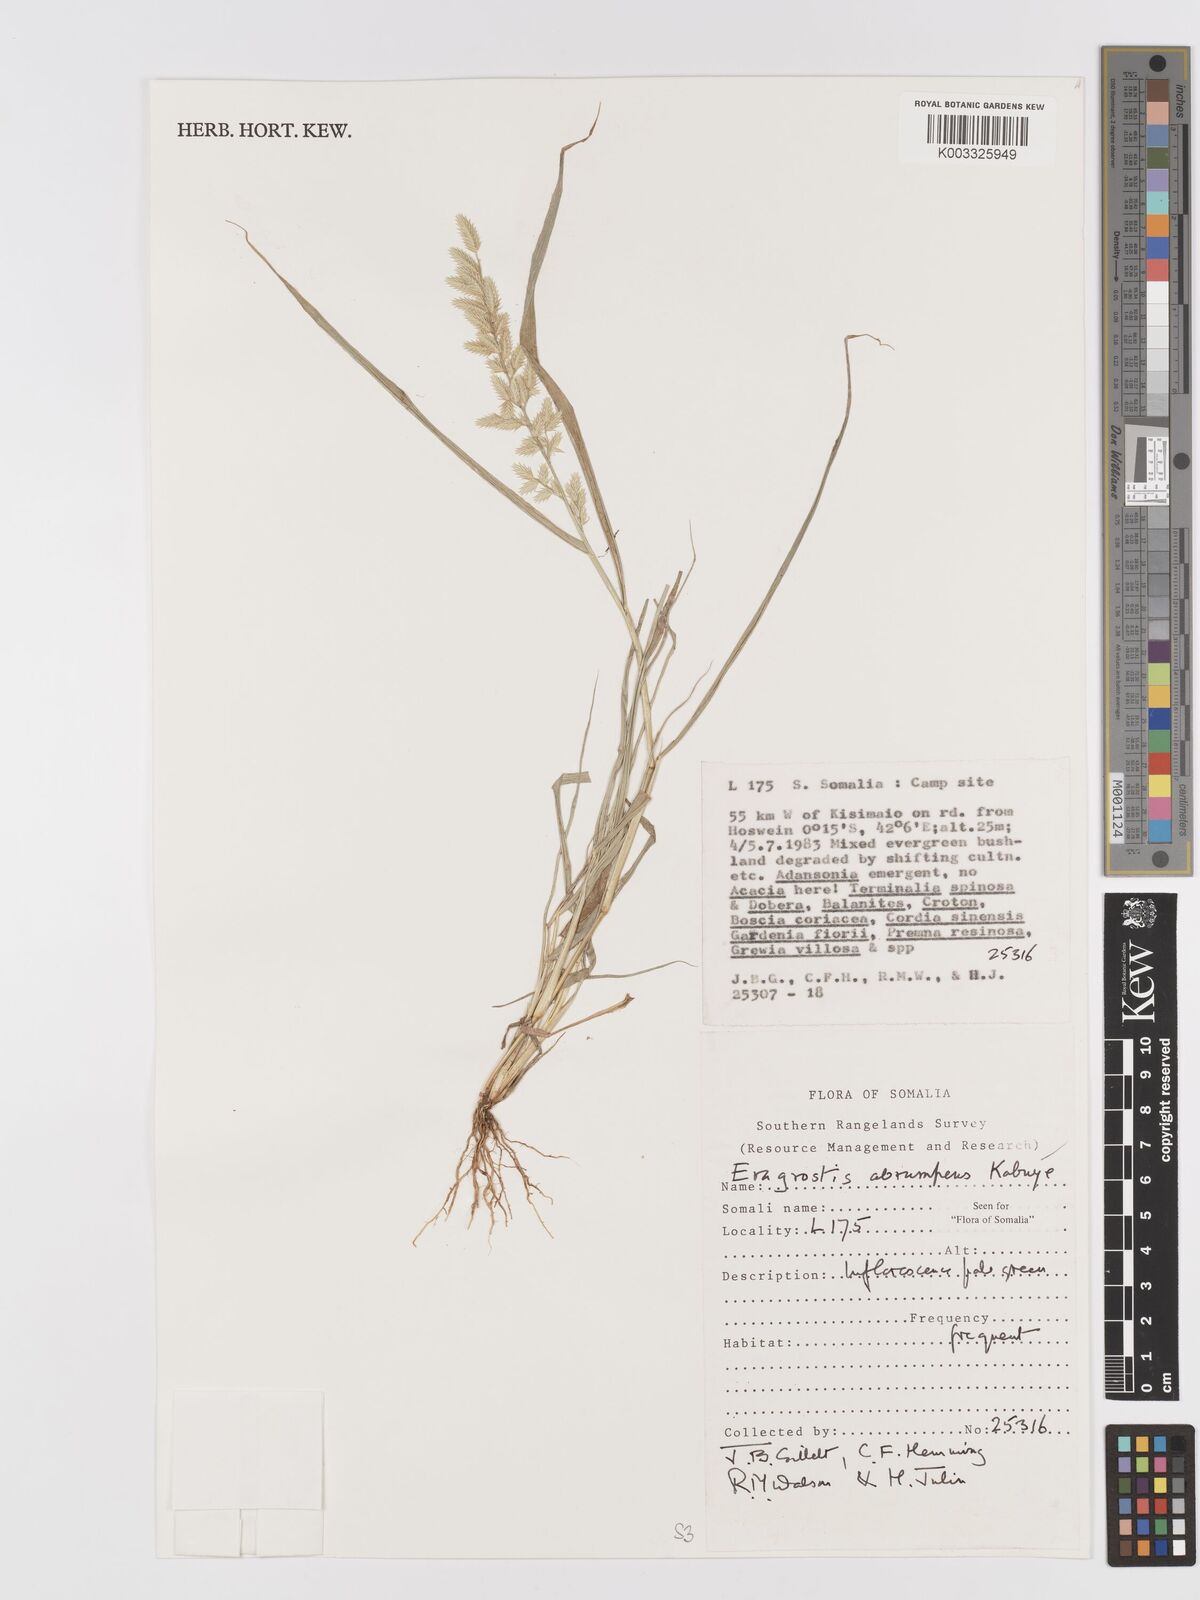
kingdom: Plantae
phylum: Tracheophyta
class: Liliopsida
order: Poales
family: Poaceae
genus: Eragrostis
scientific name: Eragrostis sennii
